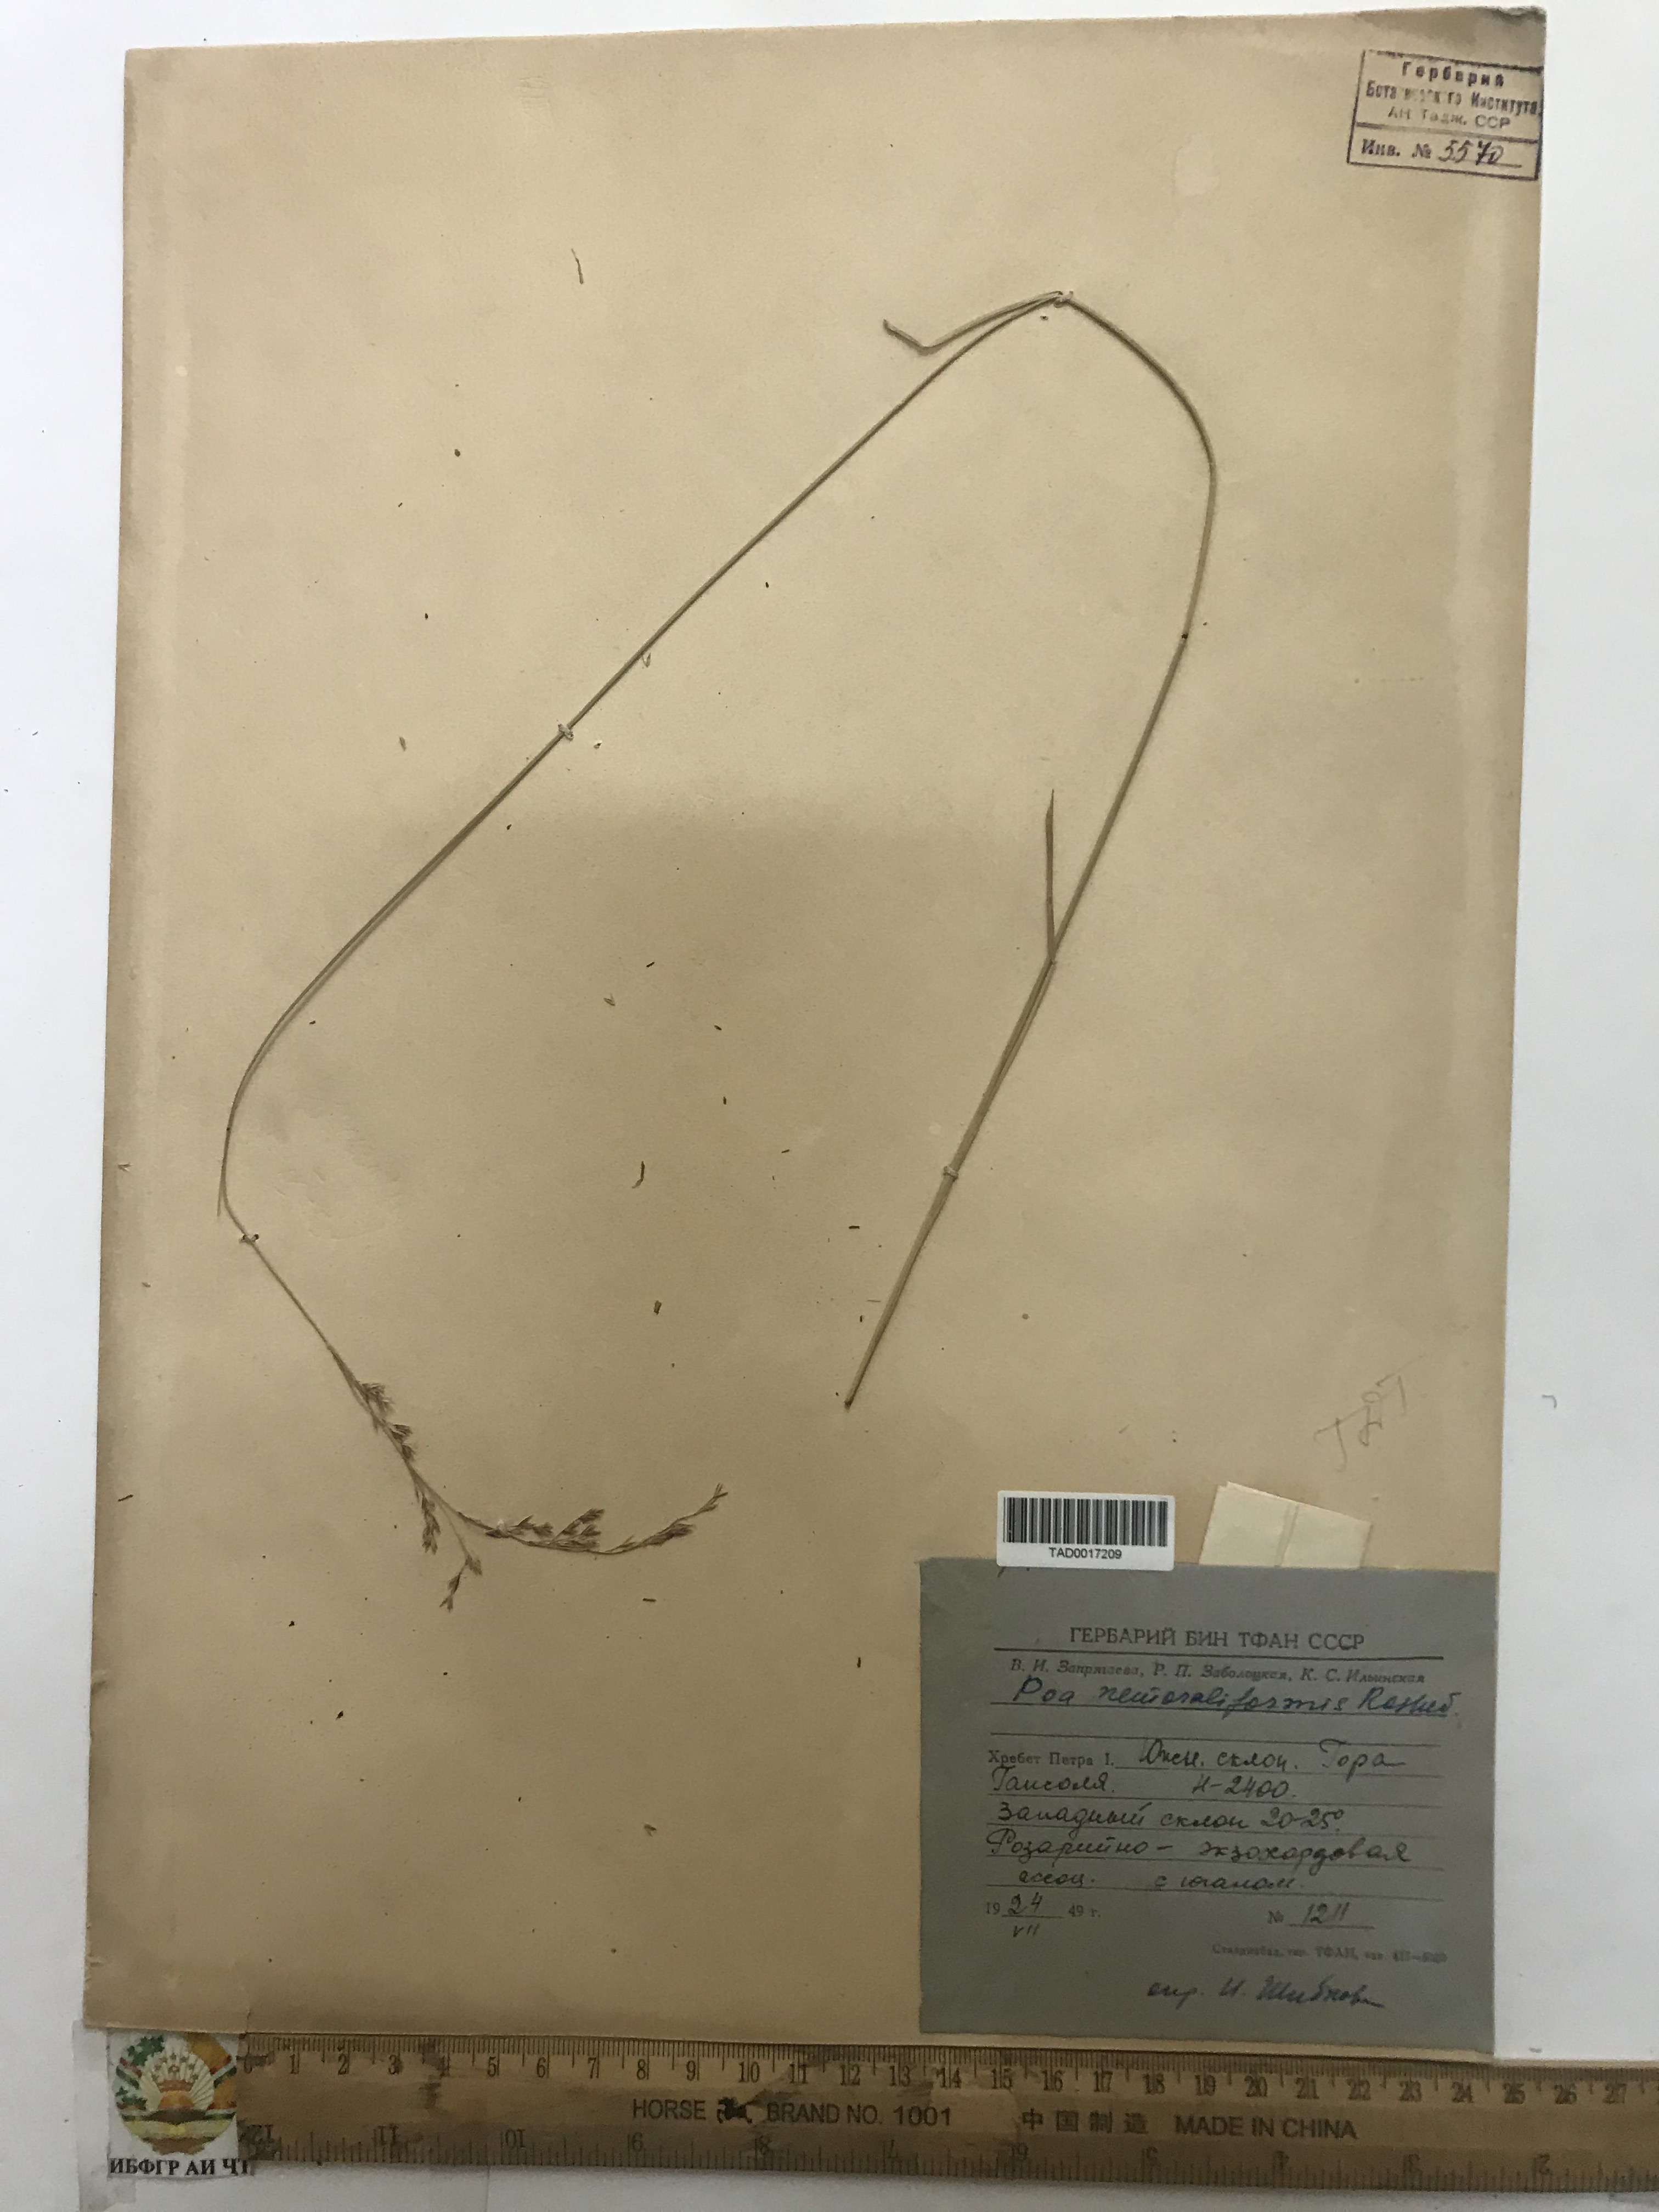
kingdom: Plantae
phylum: Tracheophyta
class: Liliopsida
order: Poales
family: Poaceae
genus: Poa
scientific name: Poa urssulensis
